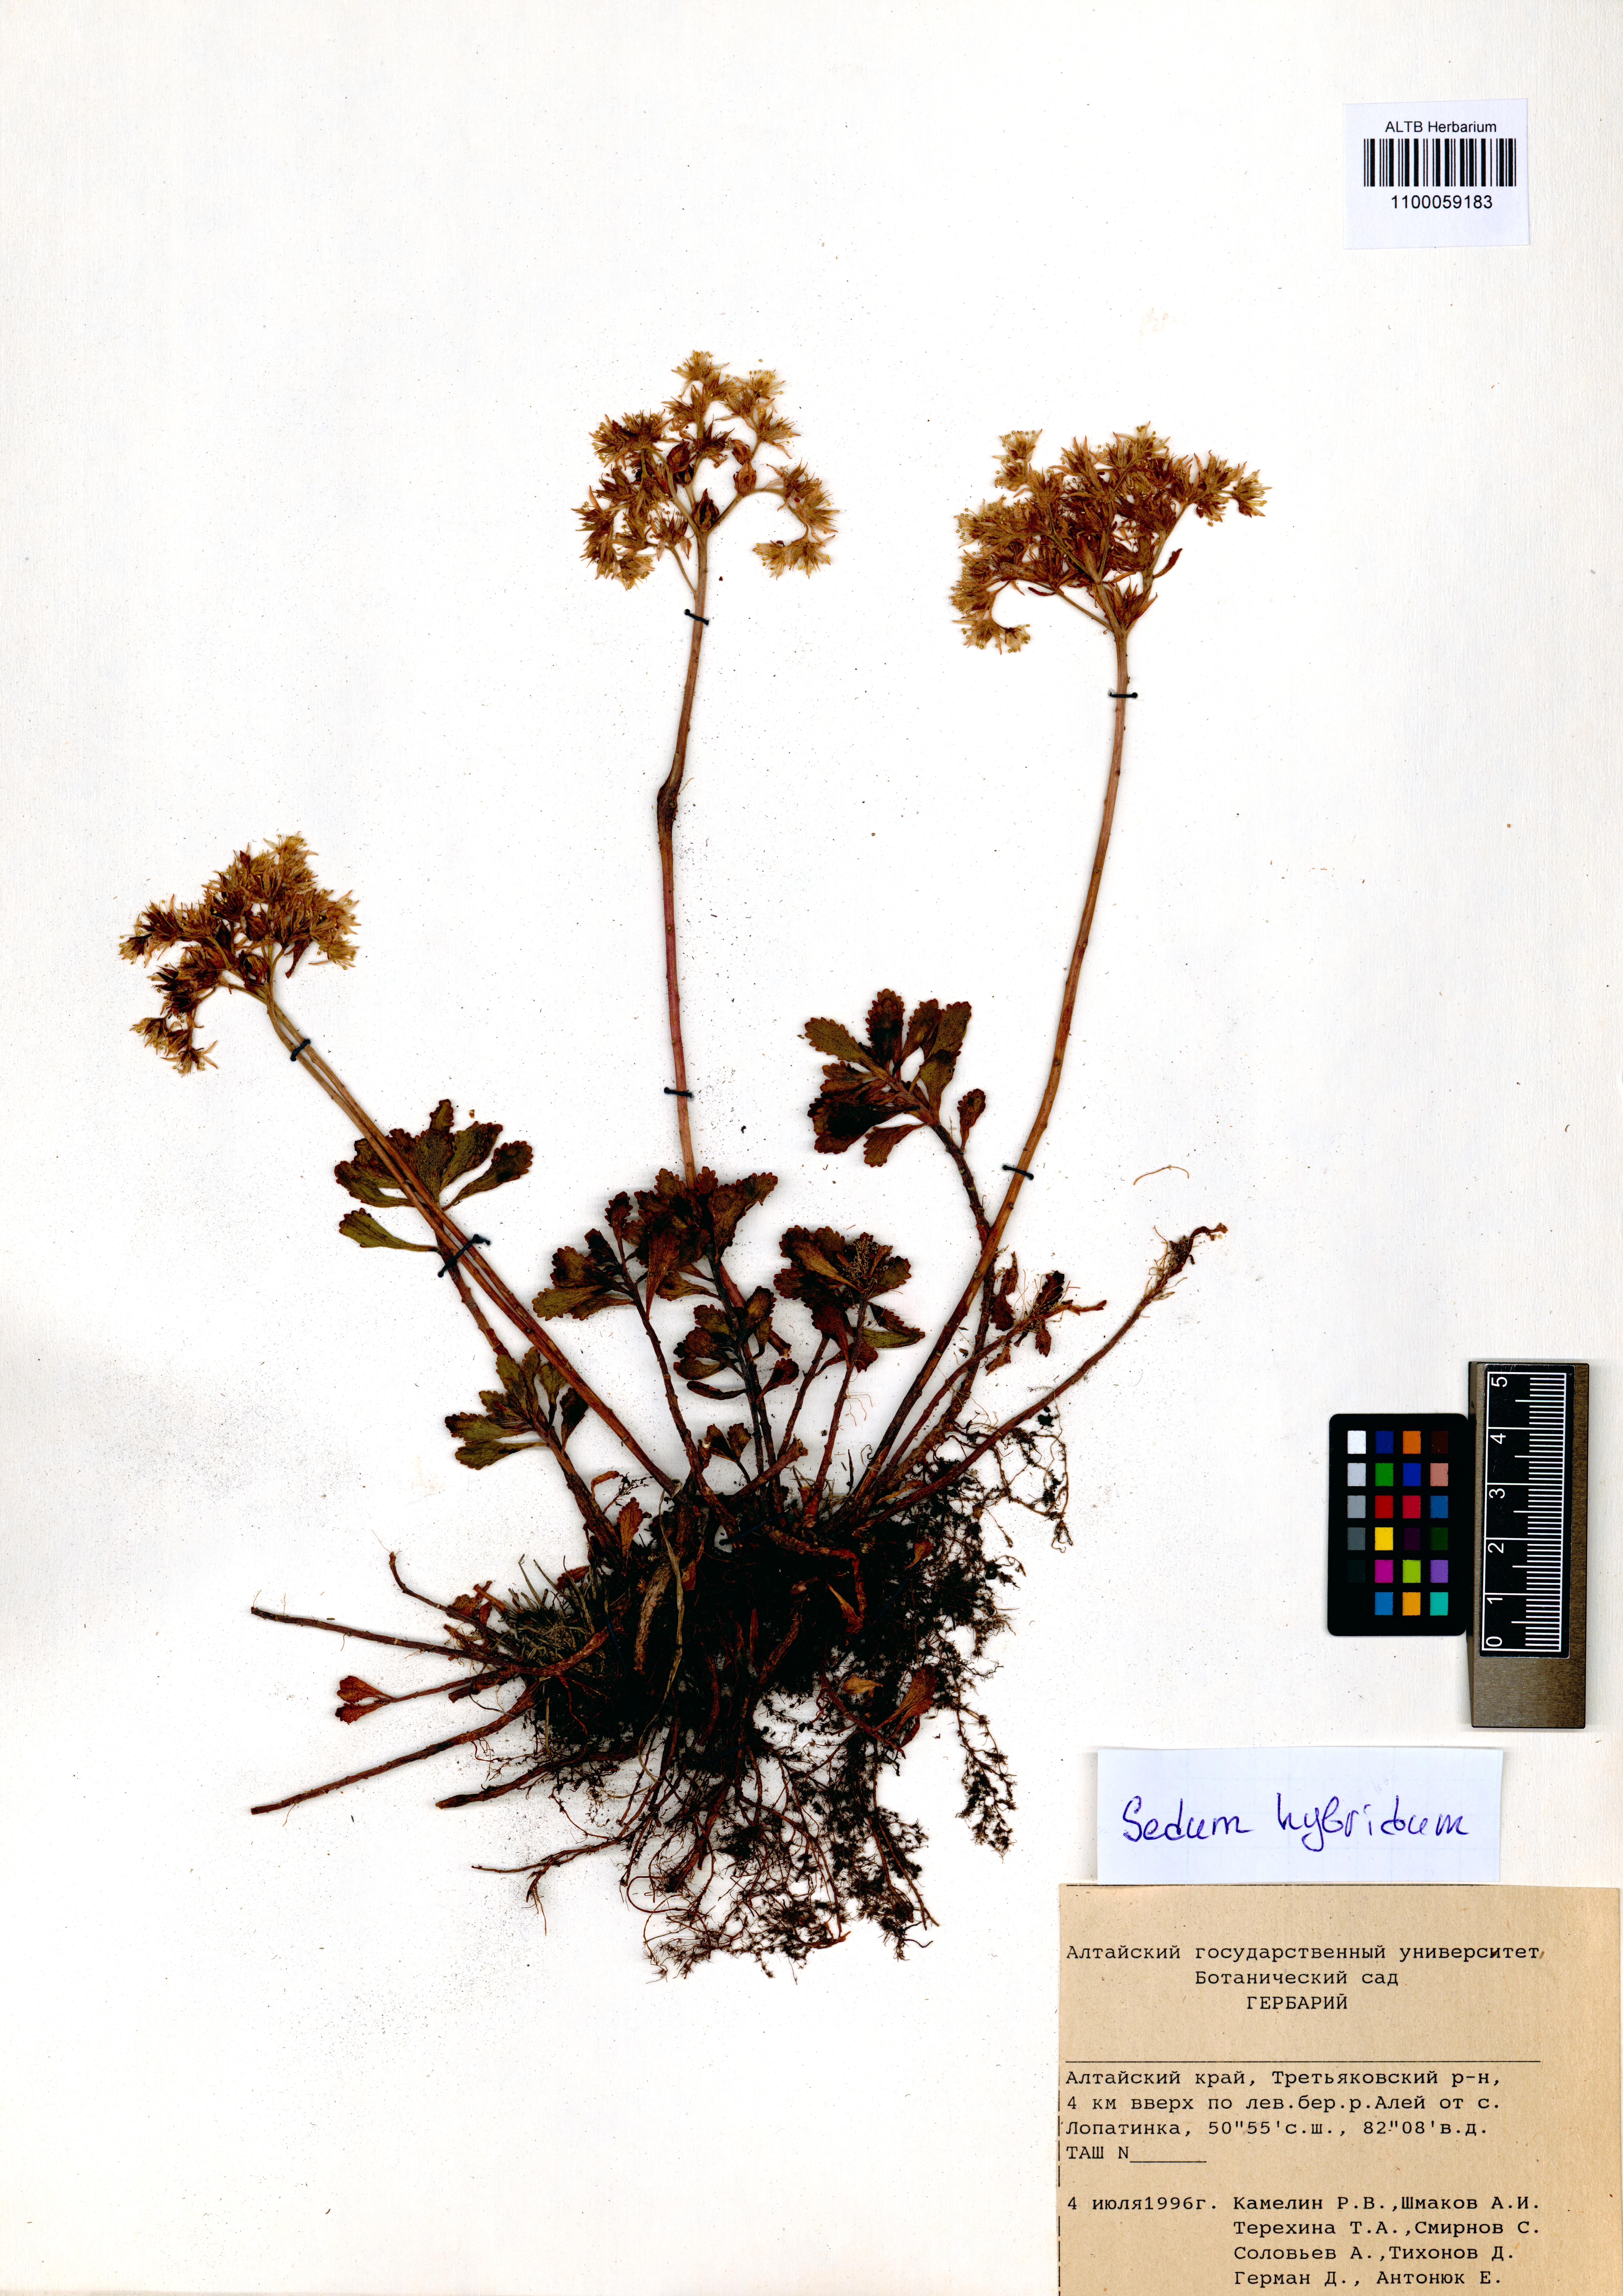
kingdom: Plantae
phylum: Tracheophyta
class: Magnoliopsida
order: Saxifragales
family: Crassulaceae
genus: Phedimus
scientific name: Phedimus hybridus
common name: Hybrid stonecrop
